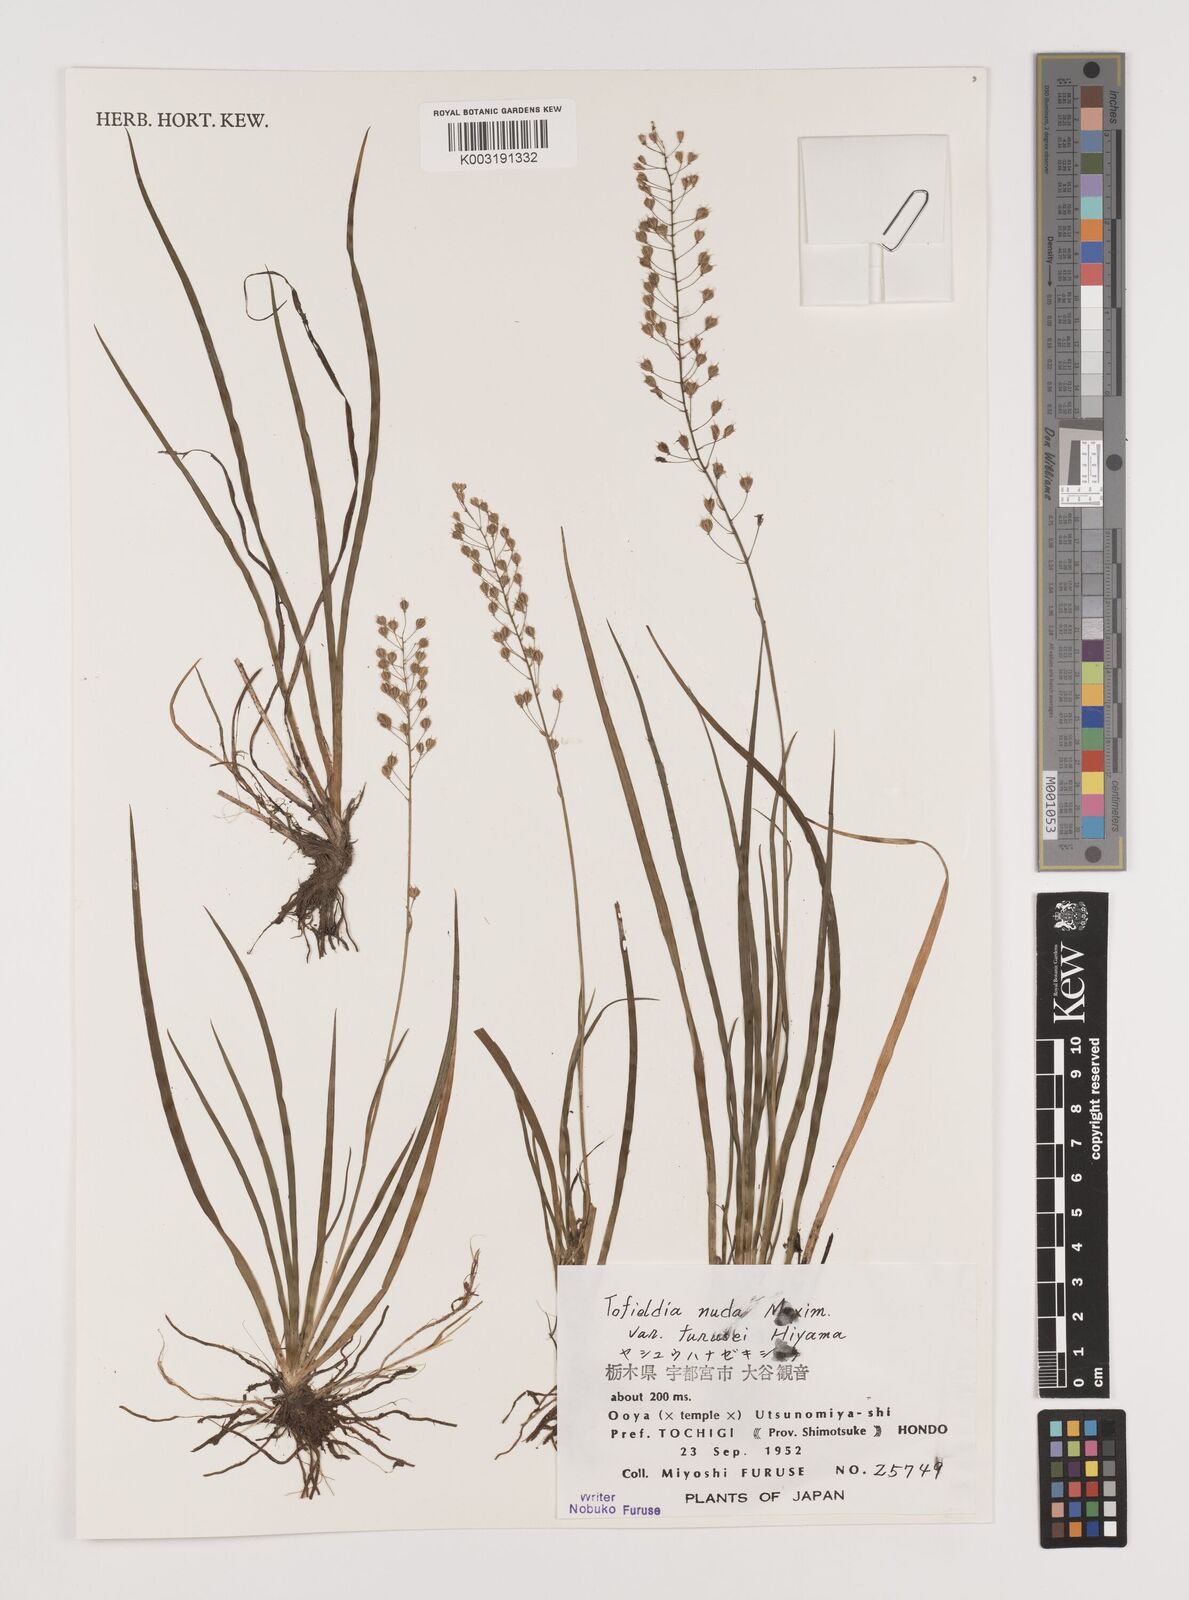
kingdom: Plantae
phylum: Tracheophyta
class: Liliopsida
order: Alismatales
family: Tofieldiaceae
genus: Tofieldia
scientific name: Tofieldia nuda
